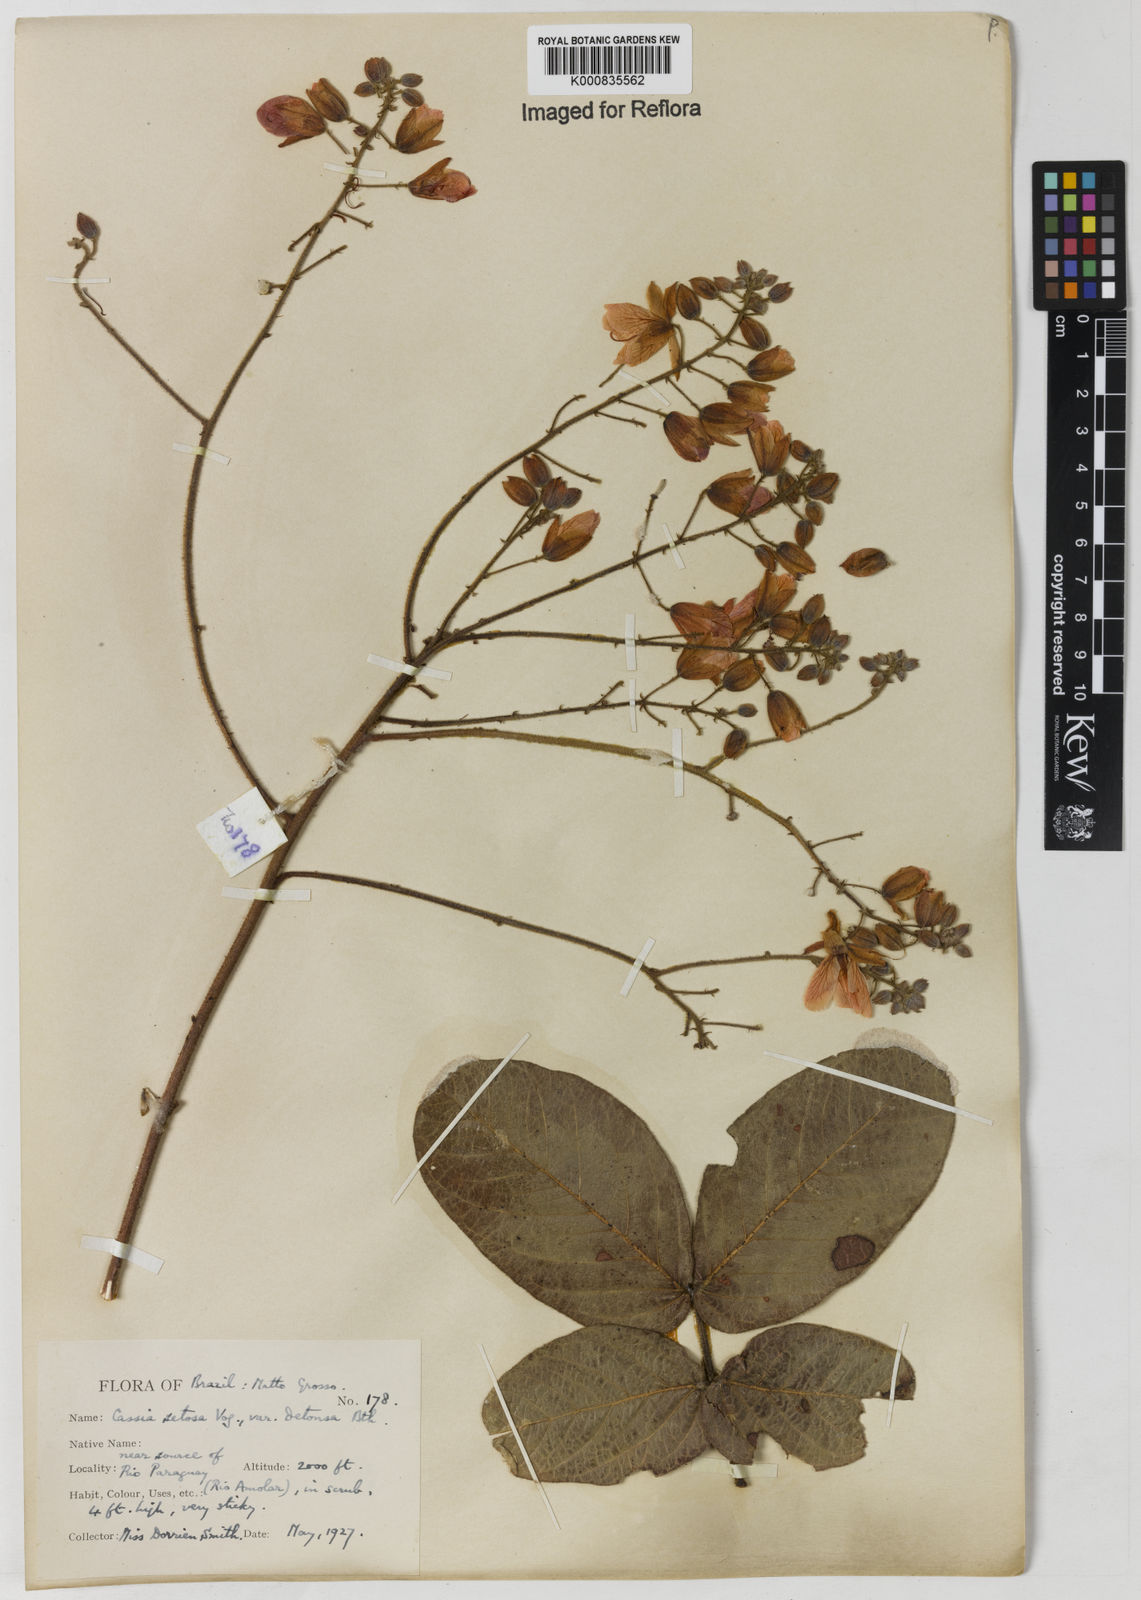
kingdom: Plantae
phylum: Tracheophyta
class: Magnoliopsida
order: Fabales
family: Fabaceae
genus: Chamaecrista
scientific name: Chamaecrista setosa
